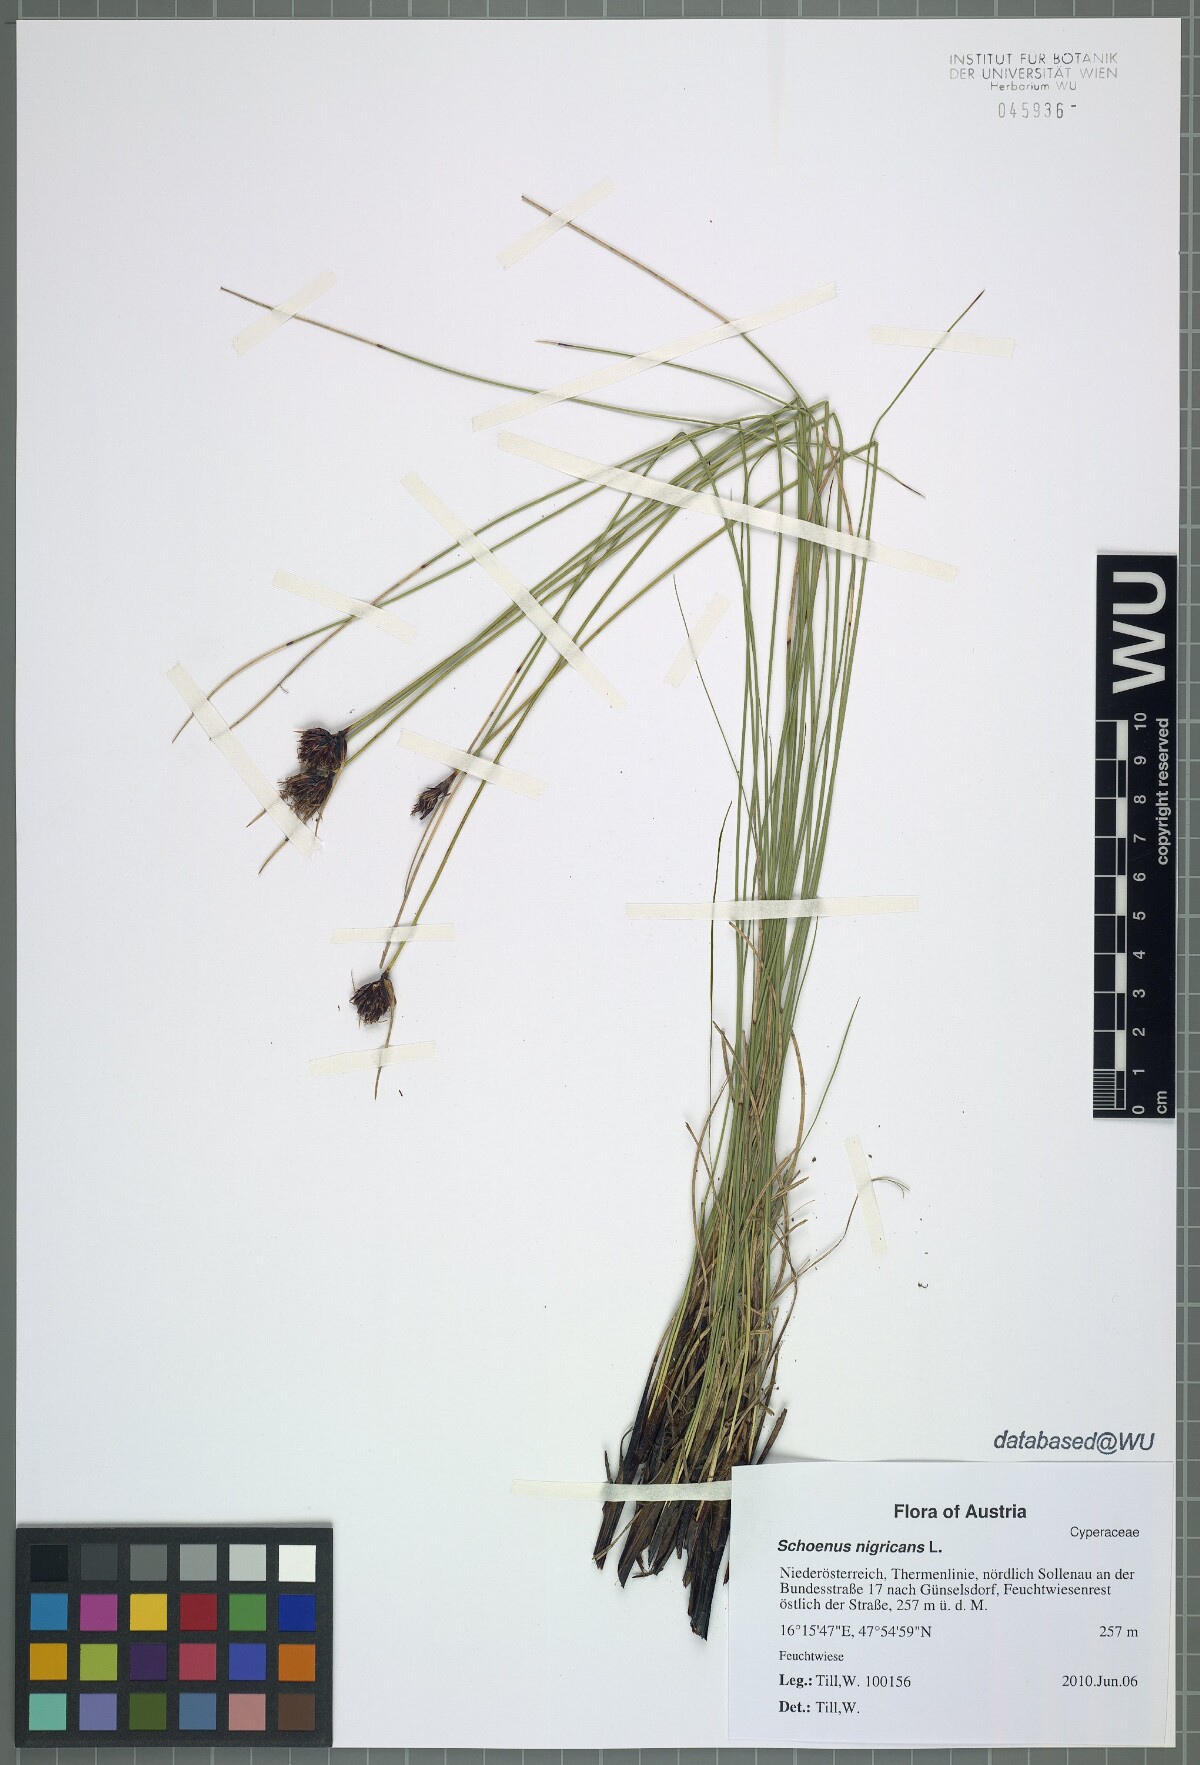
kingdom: Plantae
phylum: Tracheophyta
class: Liliopsida
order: Poales
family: Cyperaceae
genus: Schoenus
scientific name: Schoenus nigricans
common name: Black bog-rush
